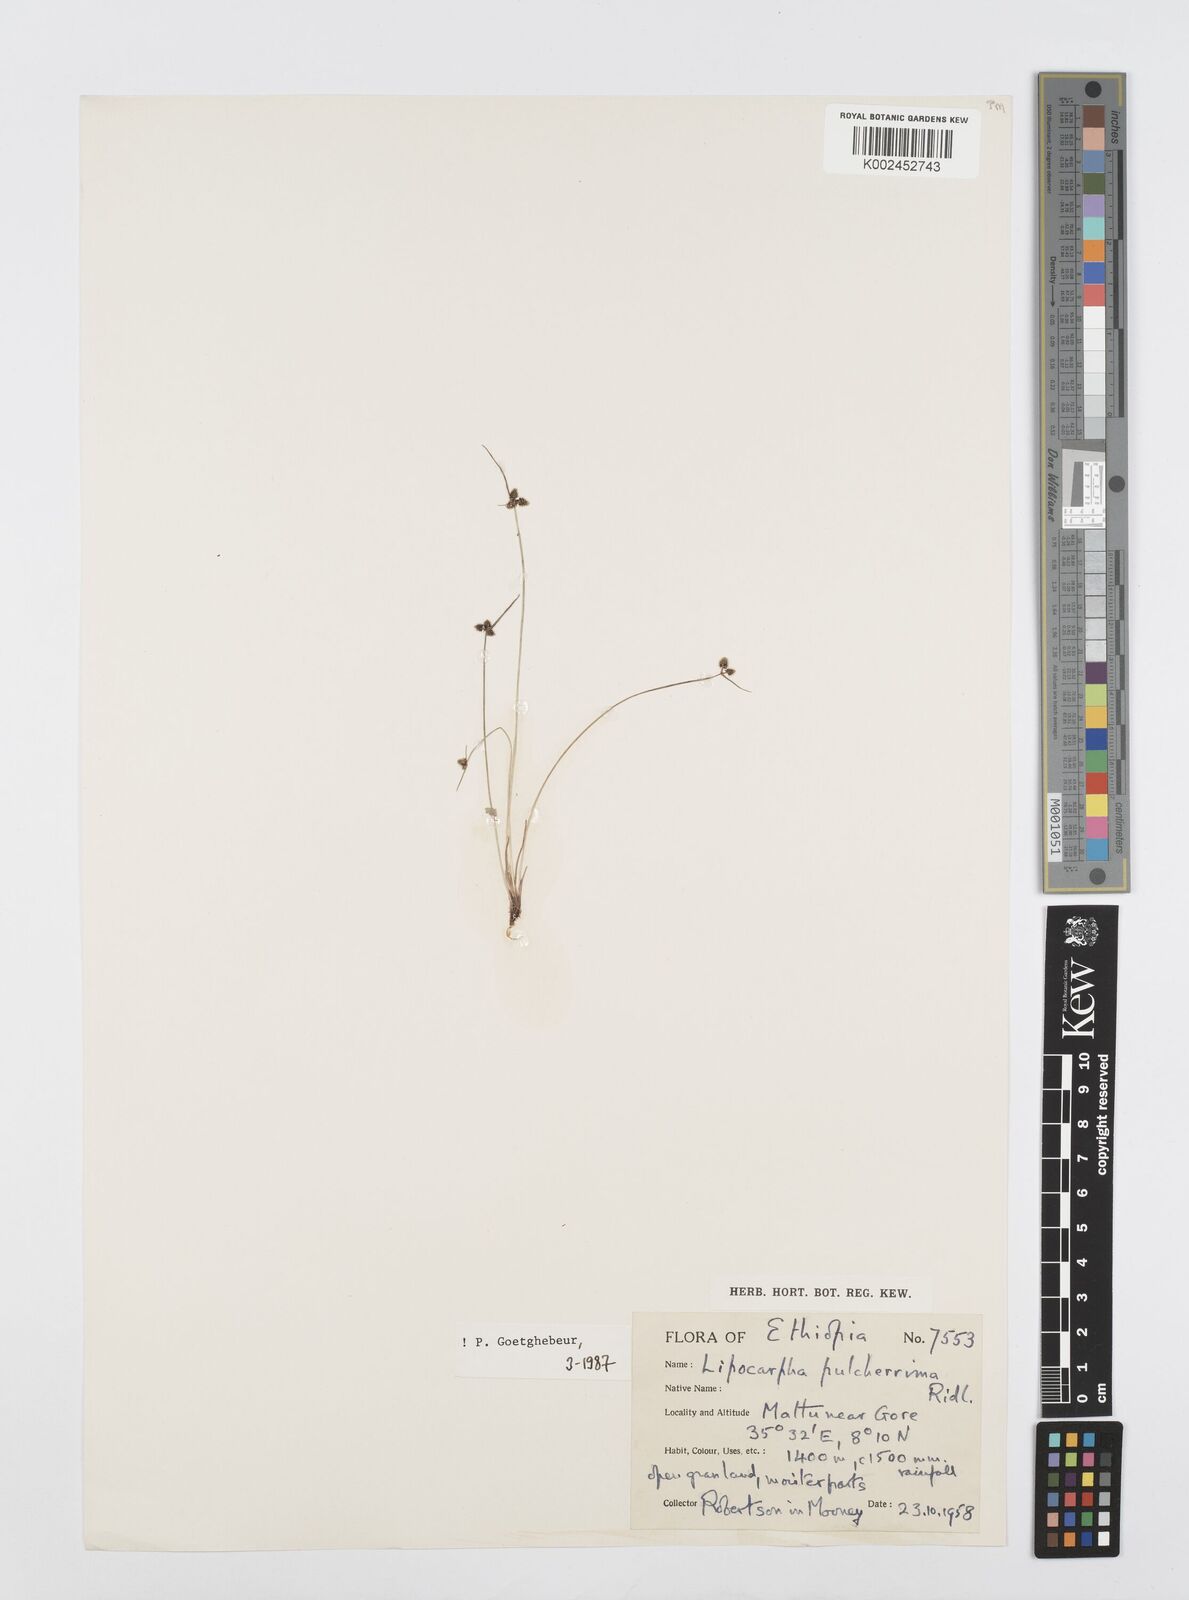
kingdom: Plantae
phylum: Tracheophyta
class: Liliopsida
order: Poales
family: Cyperaceae
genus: Cyperus
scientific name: Cyperus nanus
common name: Indian flatsedge
